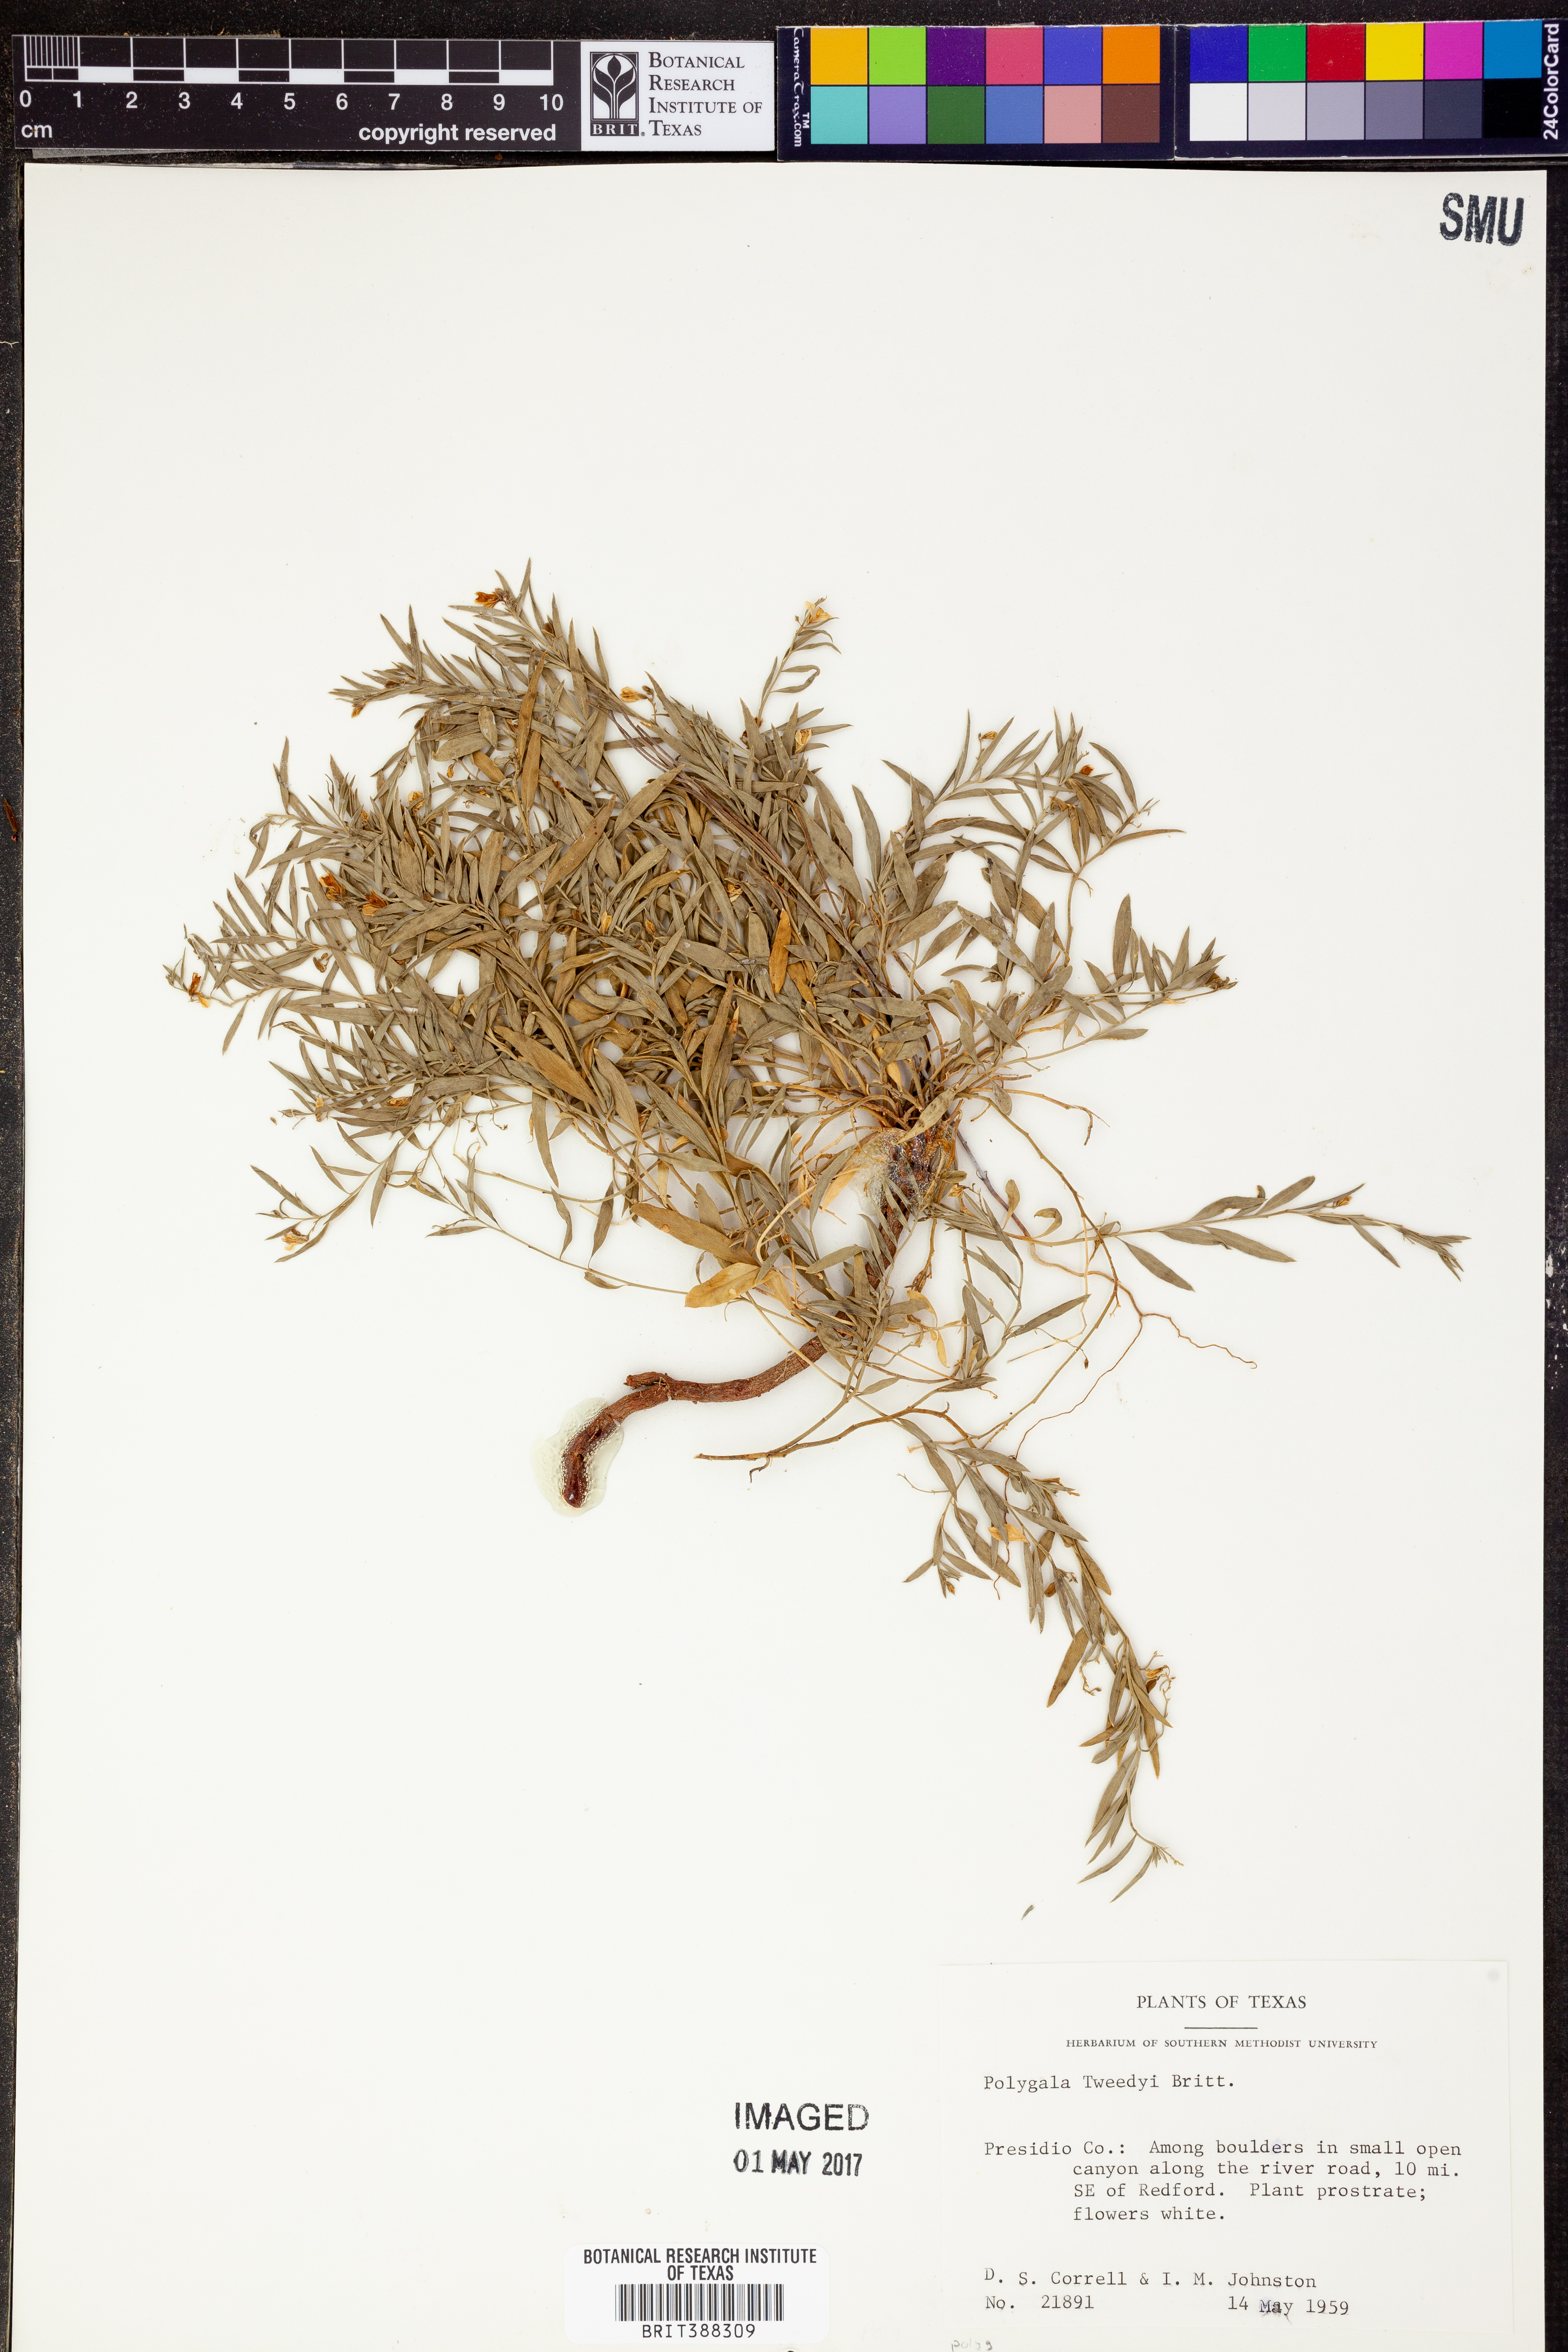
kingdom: Plantae
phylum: Tracheophyta
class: Magnoliopsida
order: Fabales
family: Polygalaceae
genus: Rhinotropis
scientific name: Rhinotropis lindheimeri
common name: Shrubby milkwort
